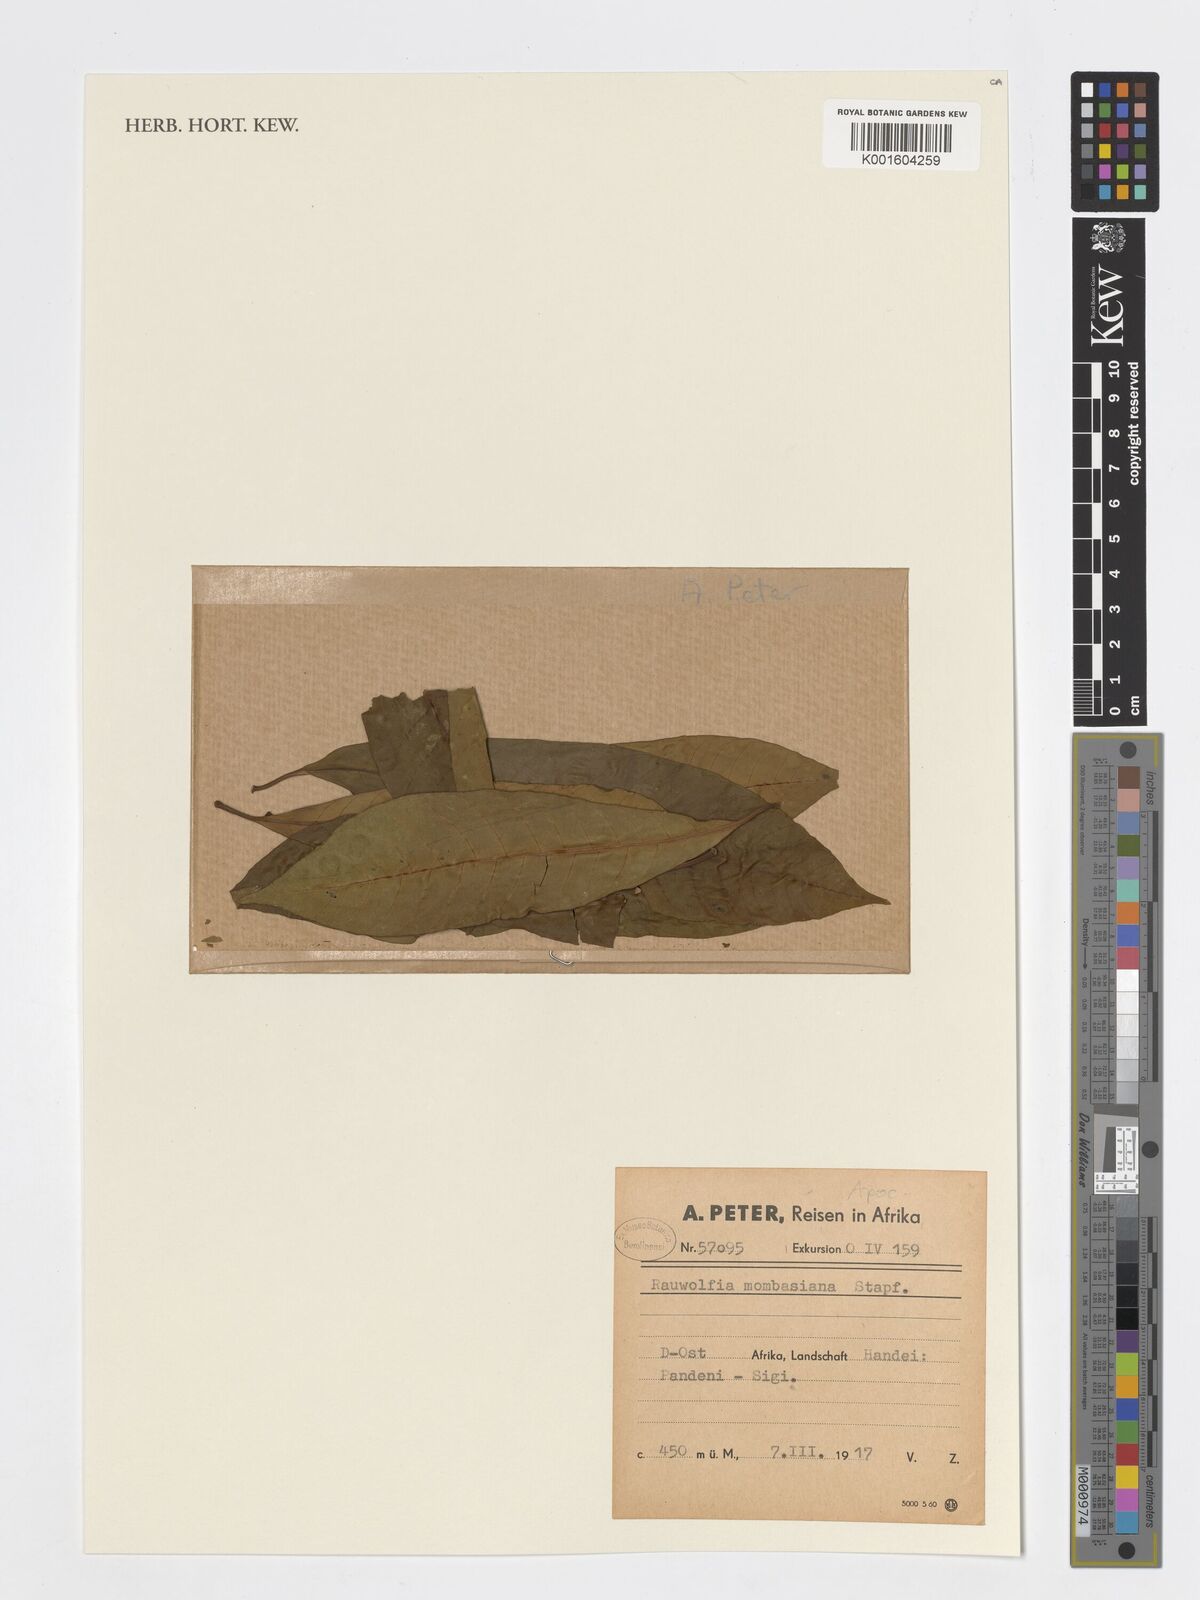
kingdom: Plantae
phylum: Tracheophyta
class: Magnoliopsida
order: Lamiales
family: Verbenaceae
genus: Citharexylum
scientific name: Citharexylum
